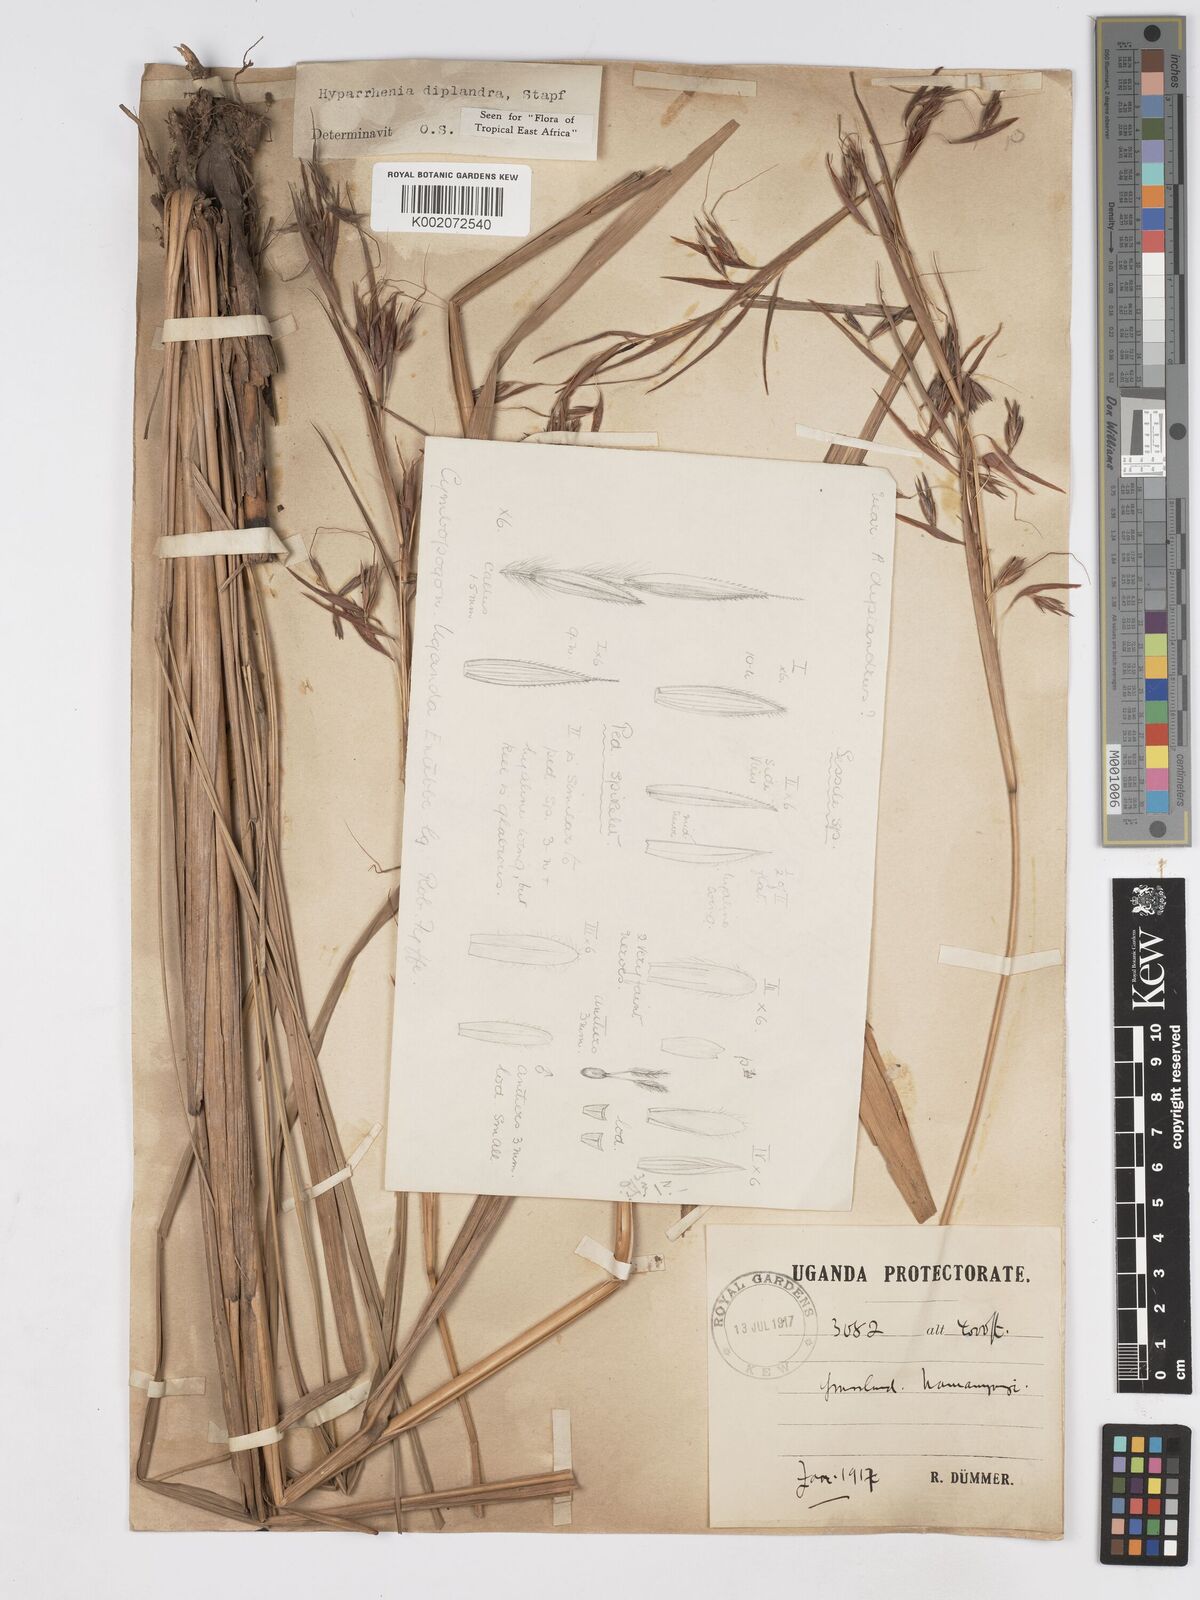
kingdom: Plantae
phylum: Tracheophyta
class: Liliopsida
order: Poales
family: Poaceae
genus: Hyparrhenia
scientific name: Hyparrhenia diplandra
